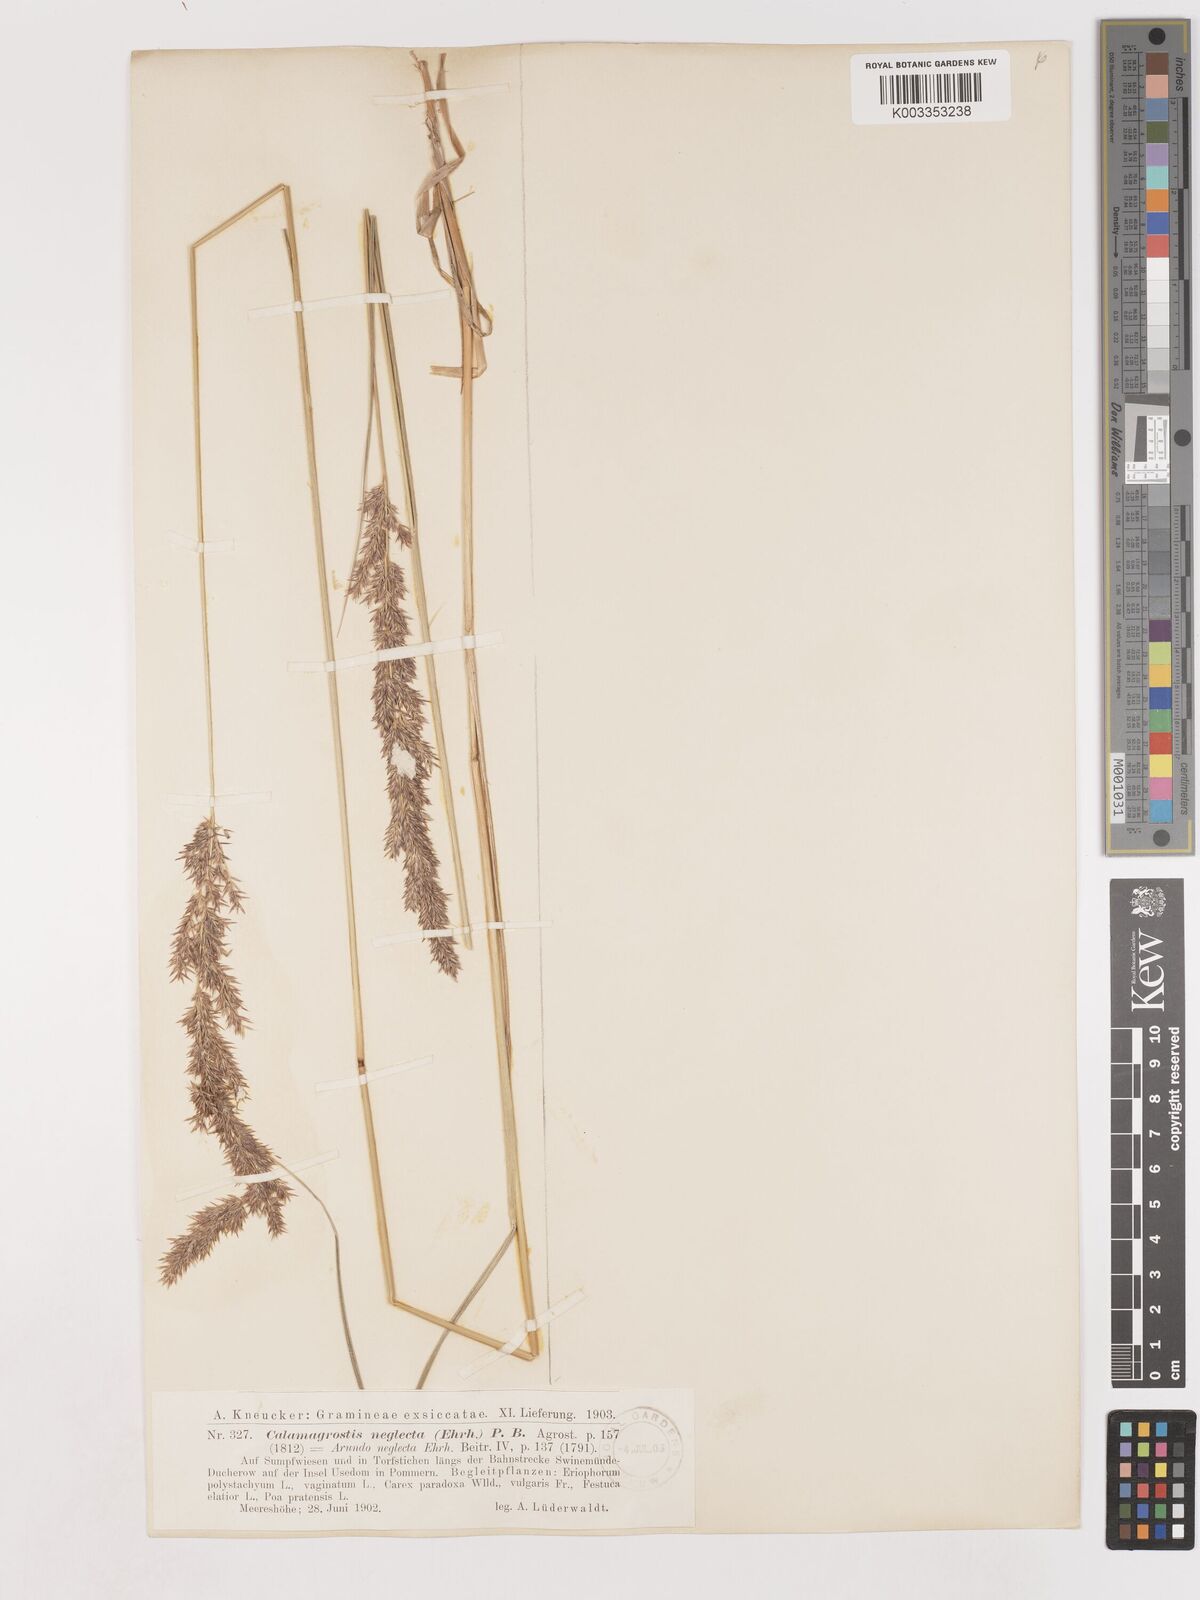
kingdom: Plantae
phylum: Tracheophyta
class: Liliopsida
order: Poales
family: Poaceae
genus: Cinnagrostis
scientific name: Cinnagrostis recta
